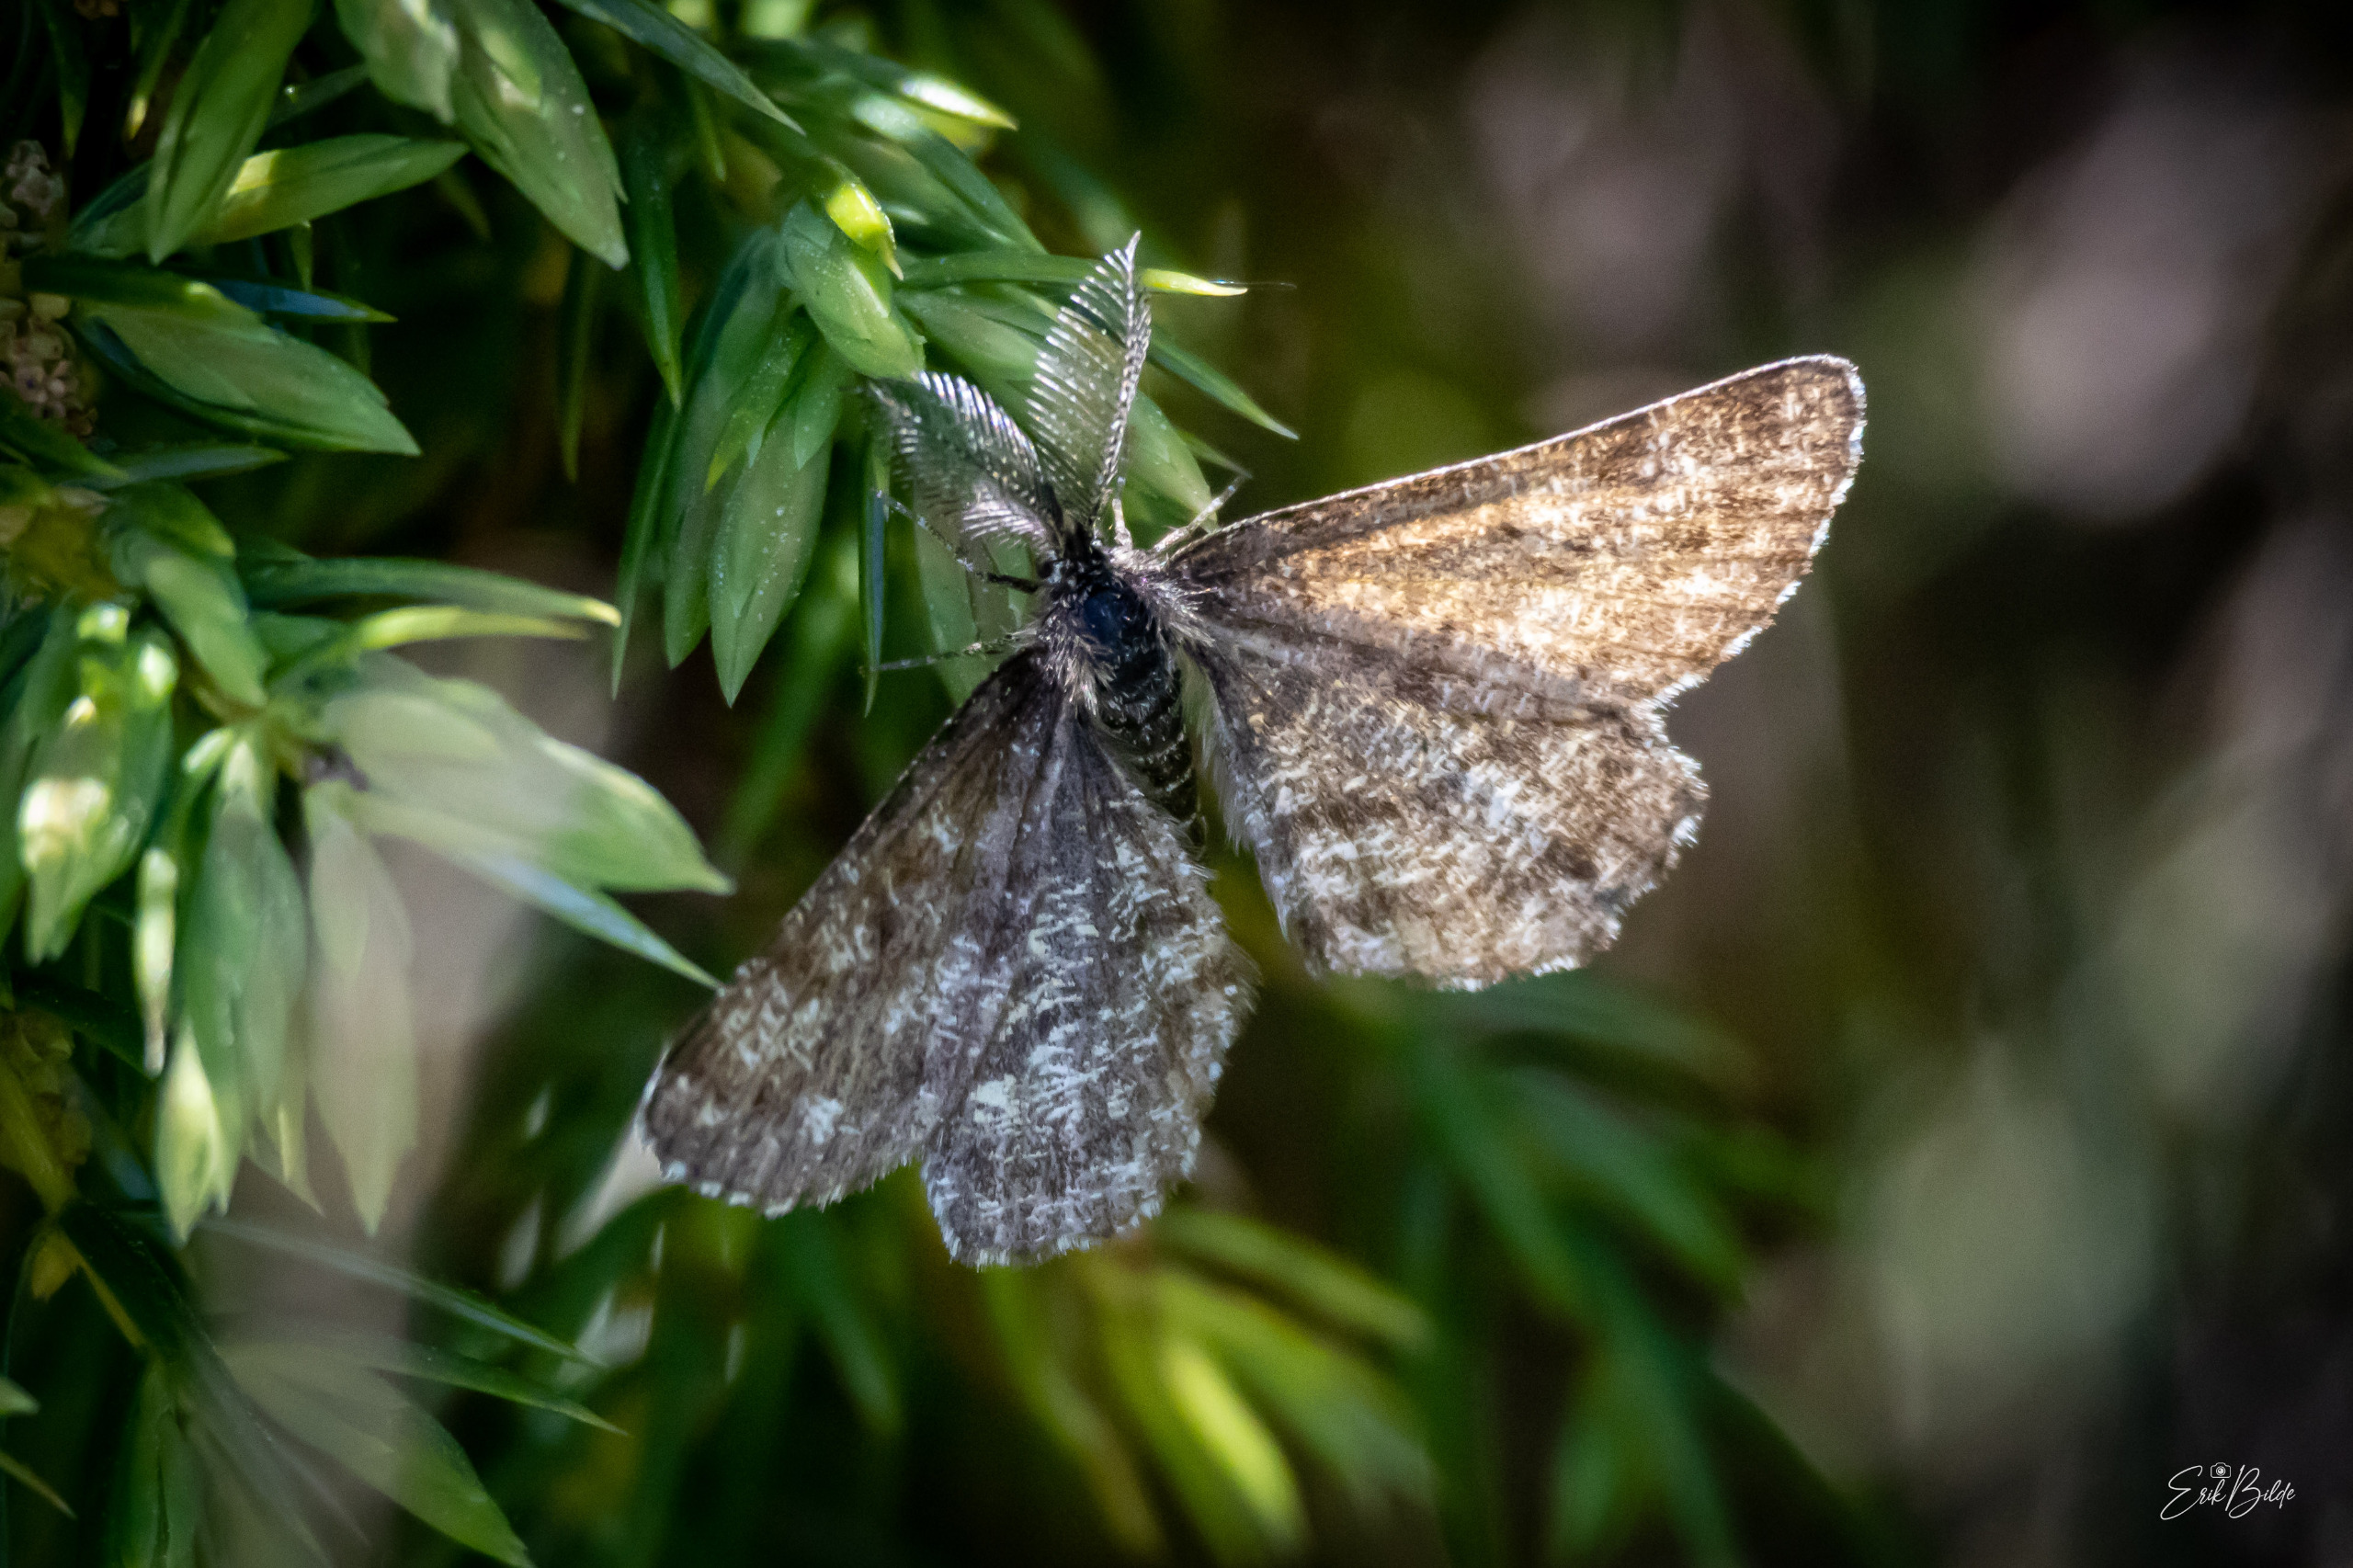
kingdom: Animalia
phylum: Arthropoda
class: Insecta
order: Lepidoptera
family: Geometridae
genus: Ematurga
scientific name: Ematurga atomaria
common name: Lyngmåler
